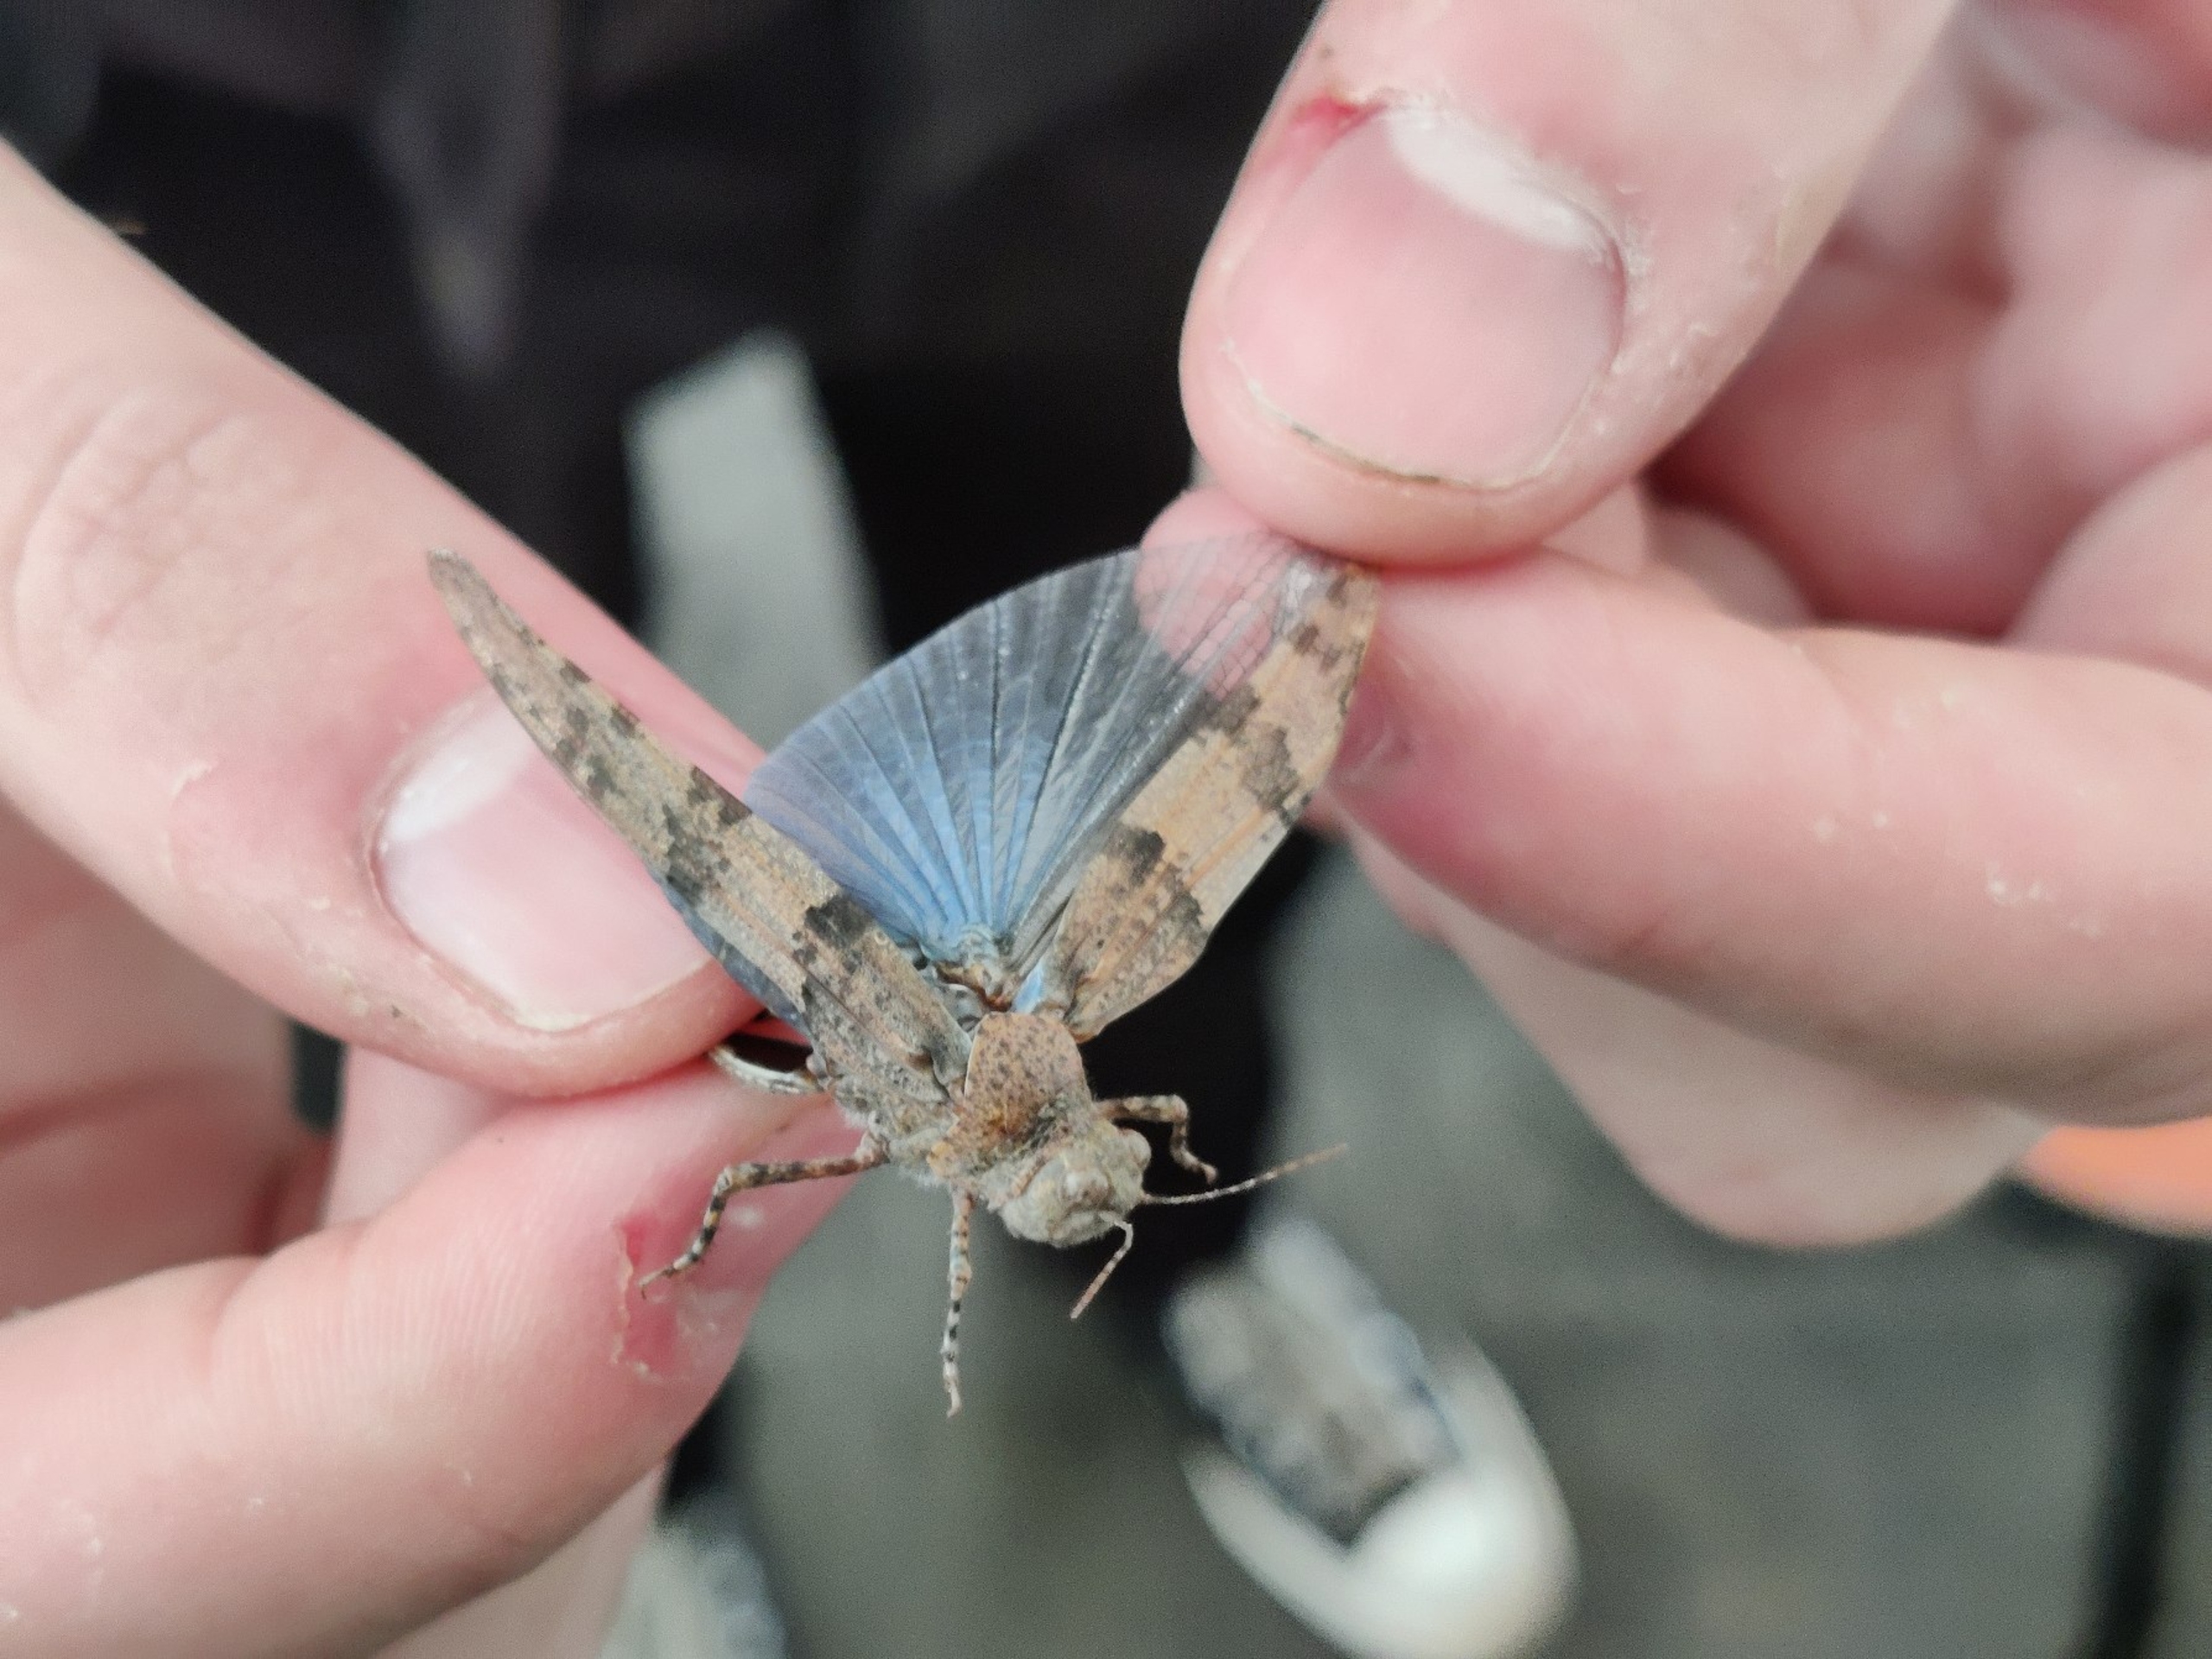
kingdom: Animalia
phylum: Arthropoda
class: Insecta
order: Orthoptera
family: Acrididae
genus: Sphingonotus
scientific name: Sphingonotus caerulans
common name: Blåvinget steppegræshoppe
